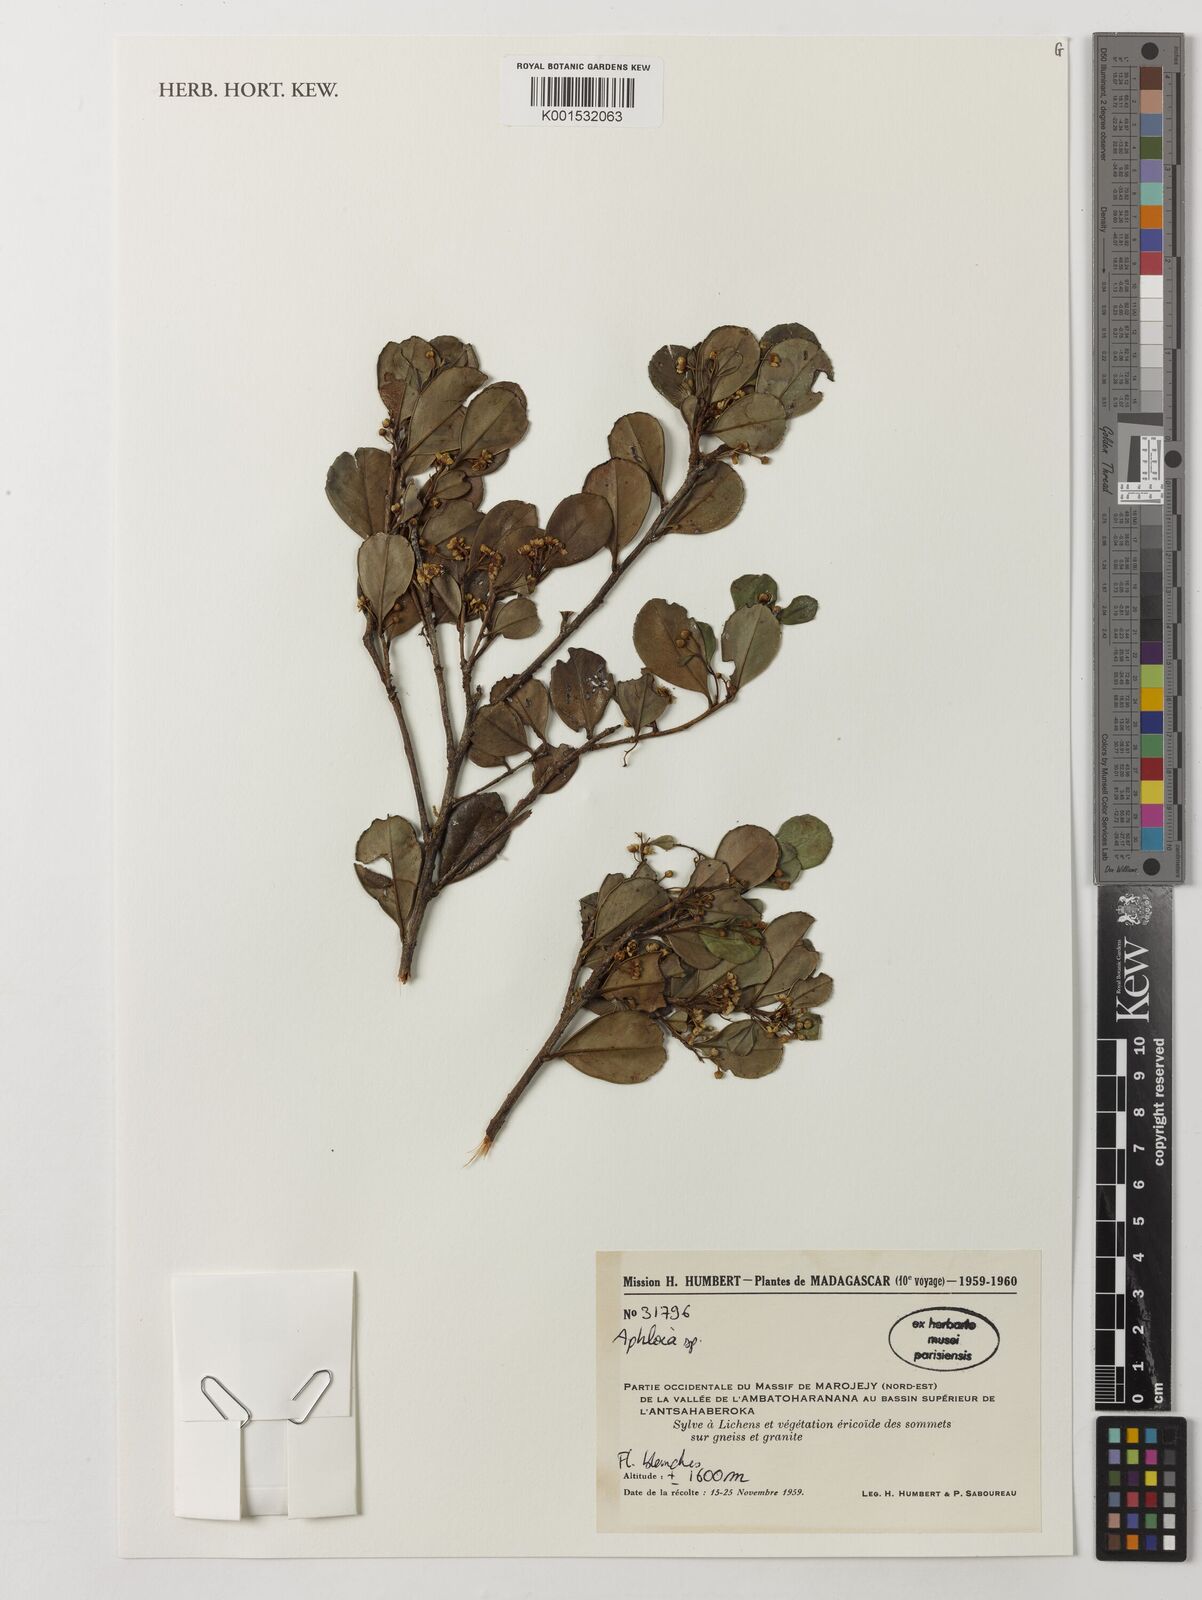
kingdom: Plantae
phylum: Tracheophyta
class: Magnoliopsida
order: Crossosomatales
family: Aphloiaceae
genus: Aphloia
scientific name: Aphloia
